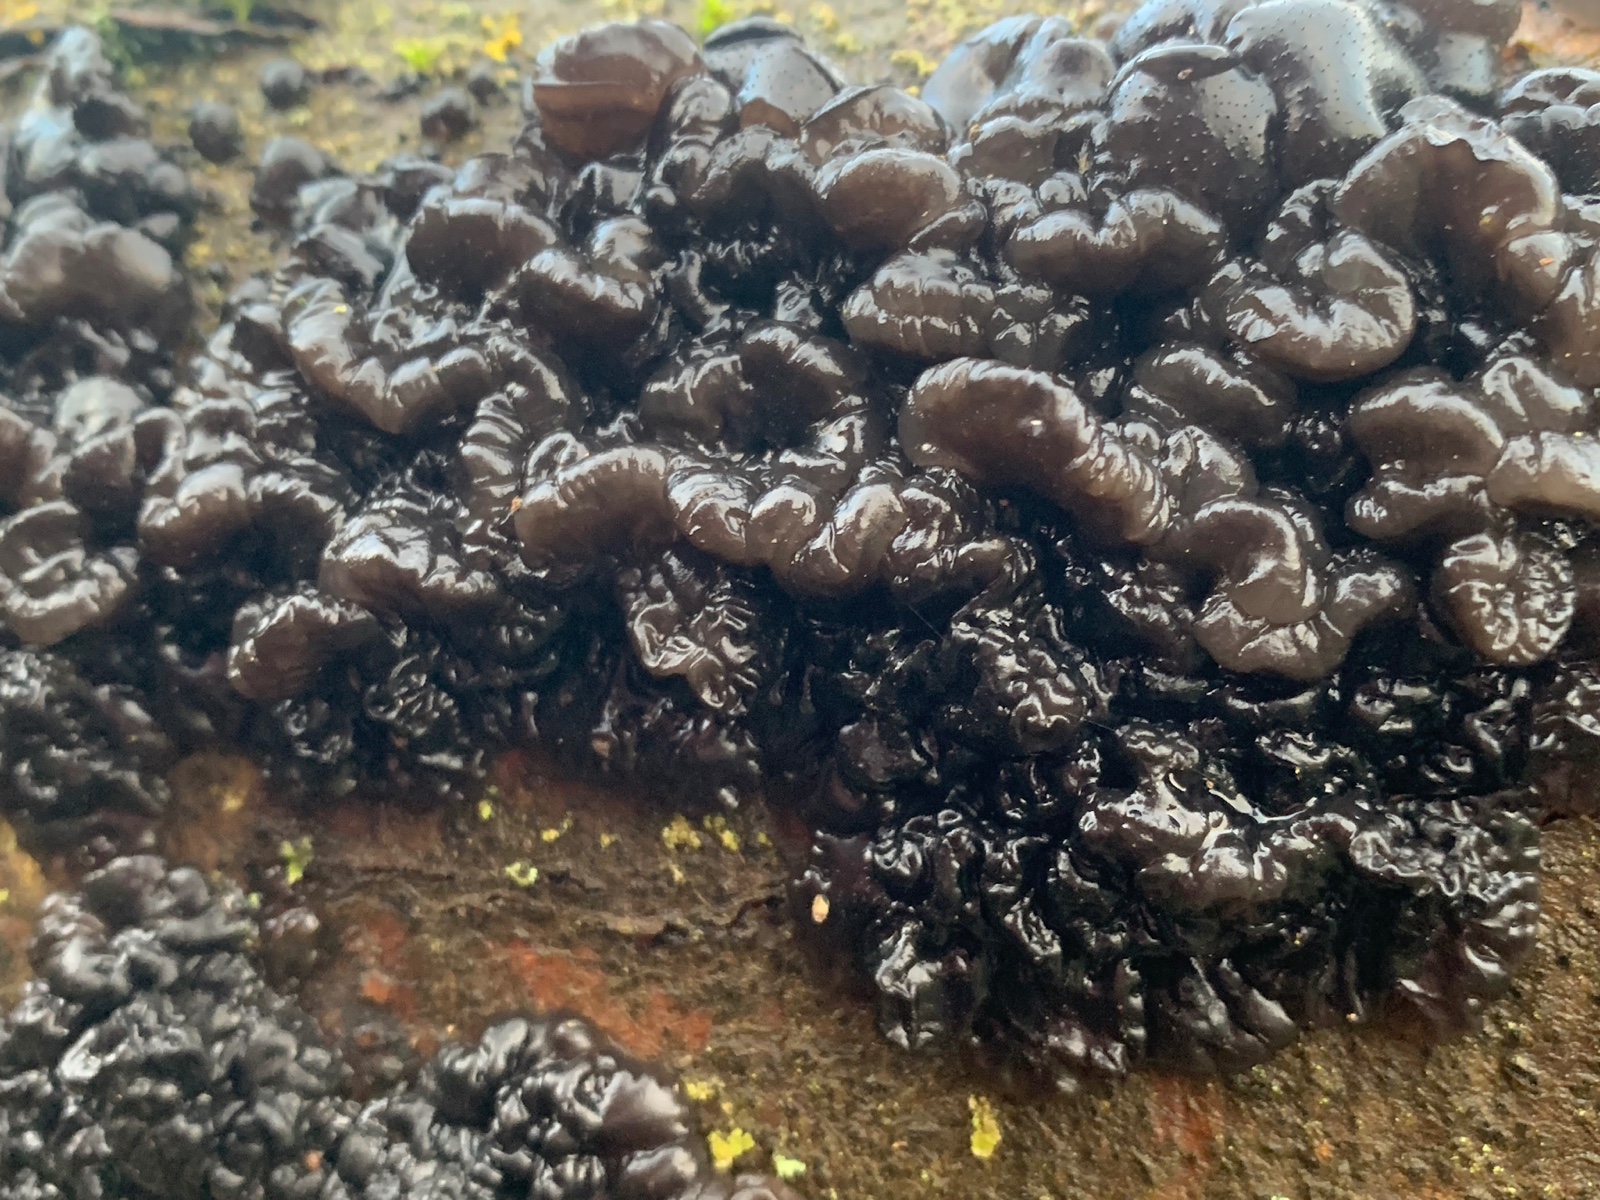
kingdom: Fungi
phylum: Basidiomycota
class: Agaricomycetes
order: Auriculariales
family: Auriculariaceae
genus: Exidia
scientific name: Exidia nigricans
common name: almindelig bævretop
